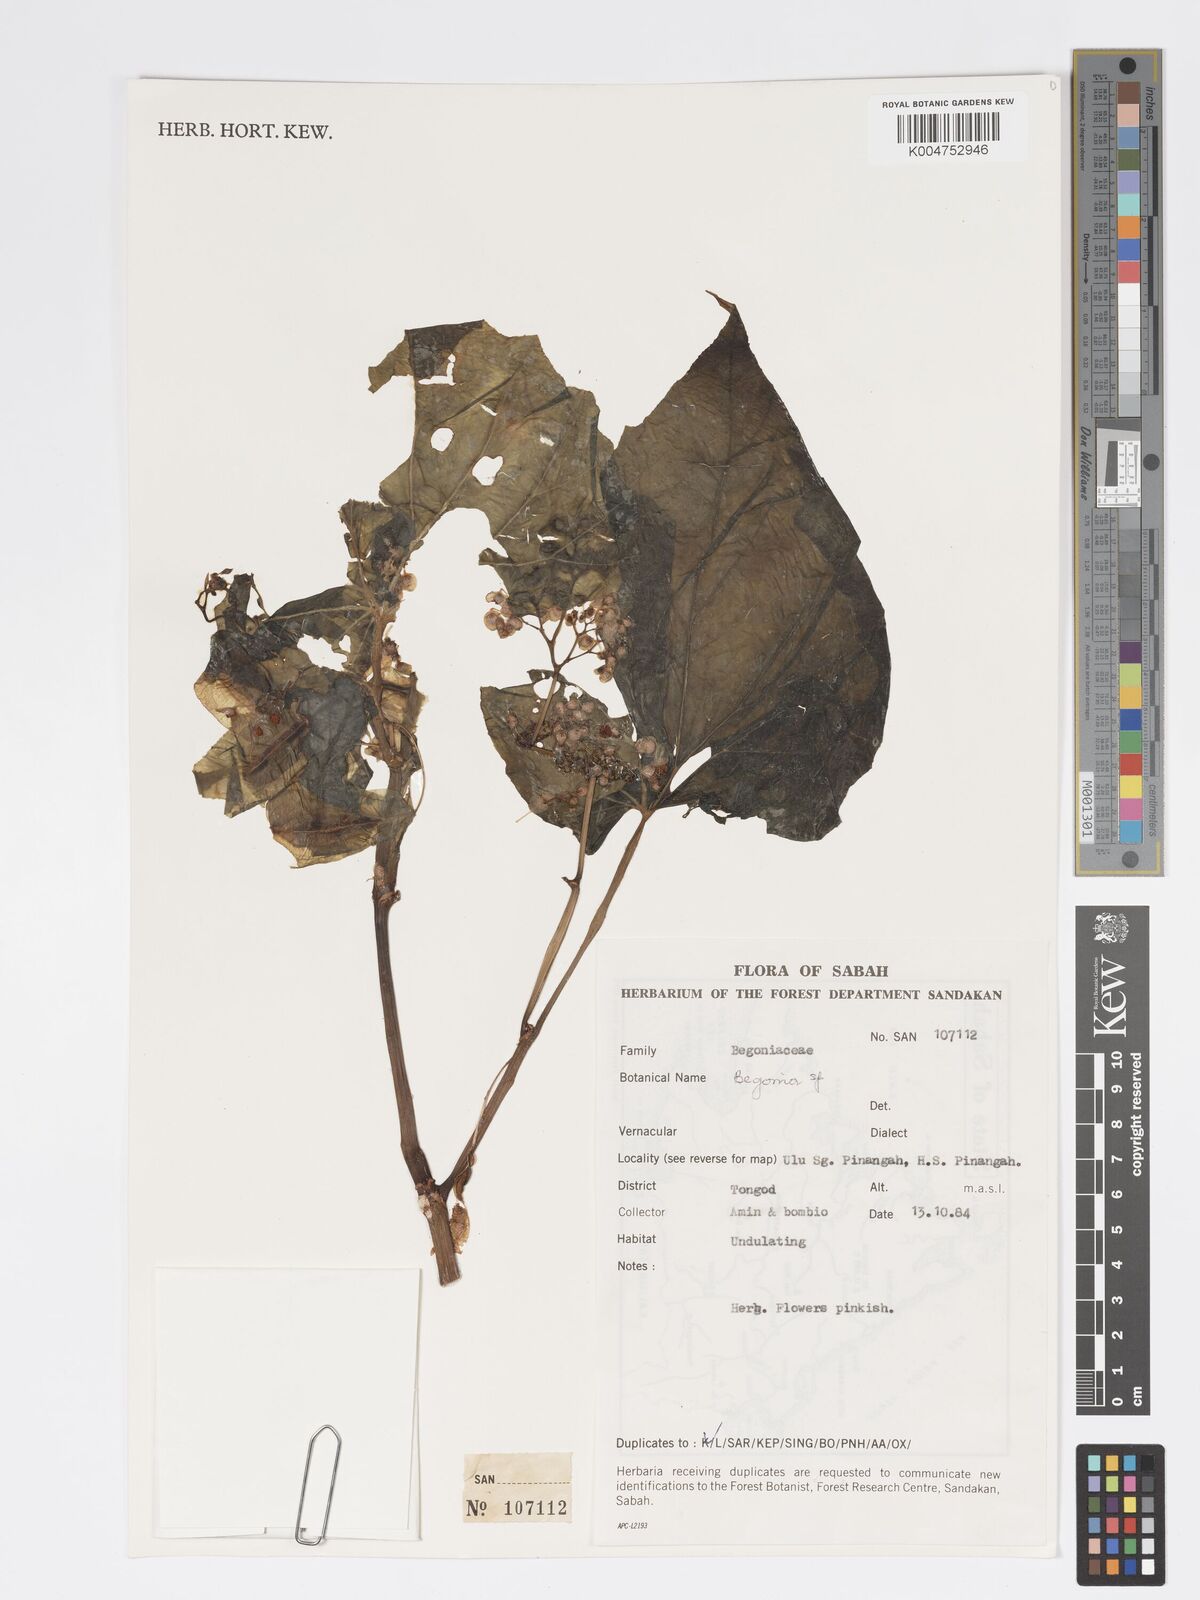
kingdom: Plantae
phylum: Tracheophyta
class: Magnoliopsida
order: Cucurbitales
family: Begoniaceae
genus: Begonia
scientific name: Begonia
